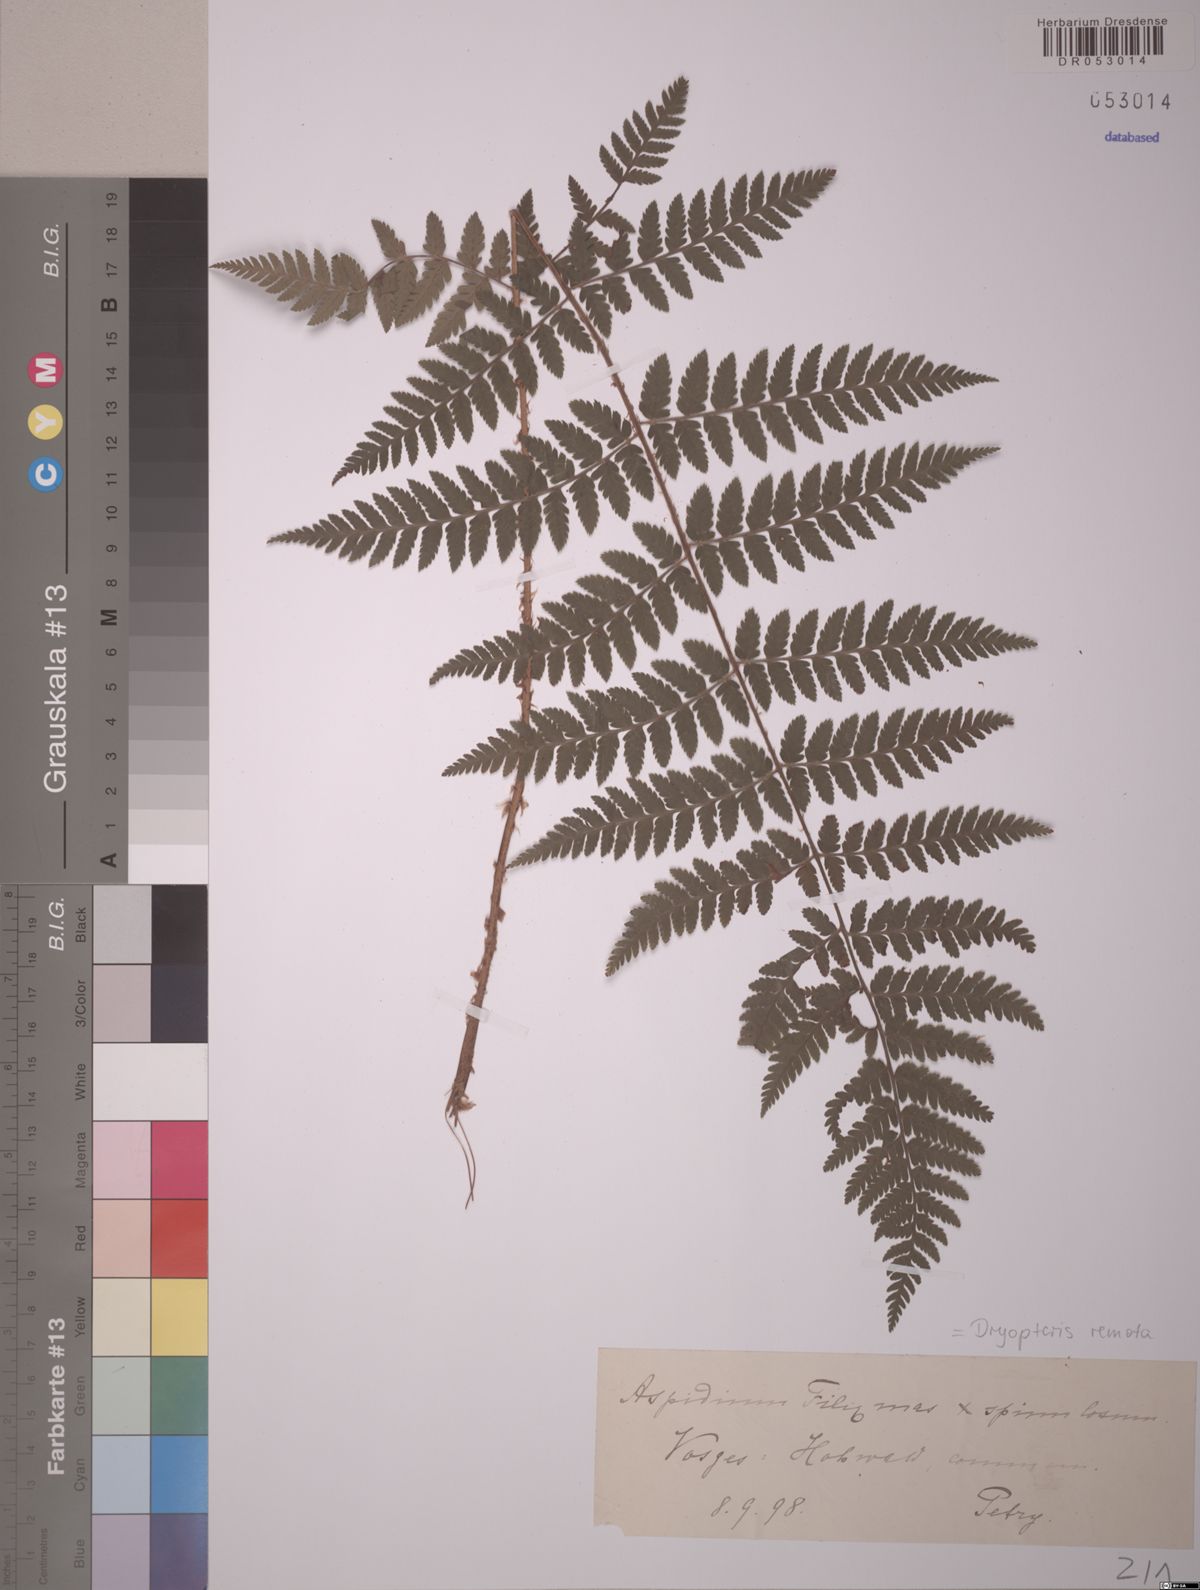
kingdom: Plantae
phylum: Tracheophyta
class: Polypodiopsida
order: Polypodiales
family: Dryopteridaceae
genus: Dryopteris
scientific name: Dryopteris remota
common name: Scaly buckler-fern
